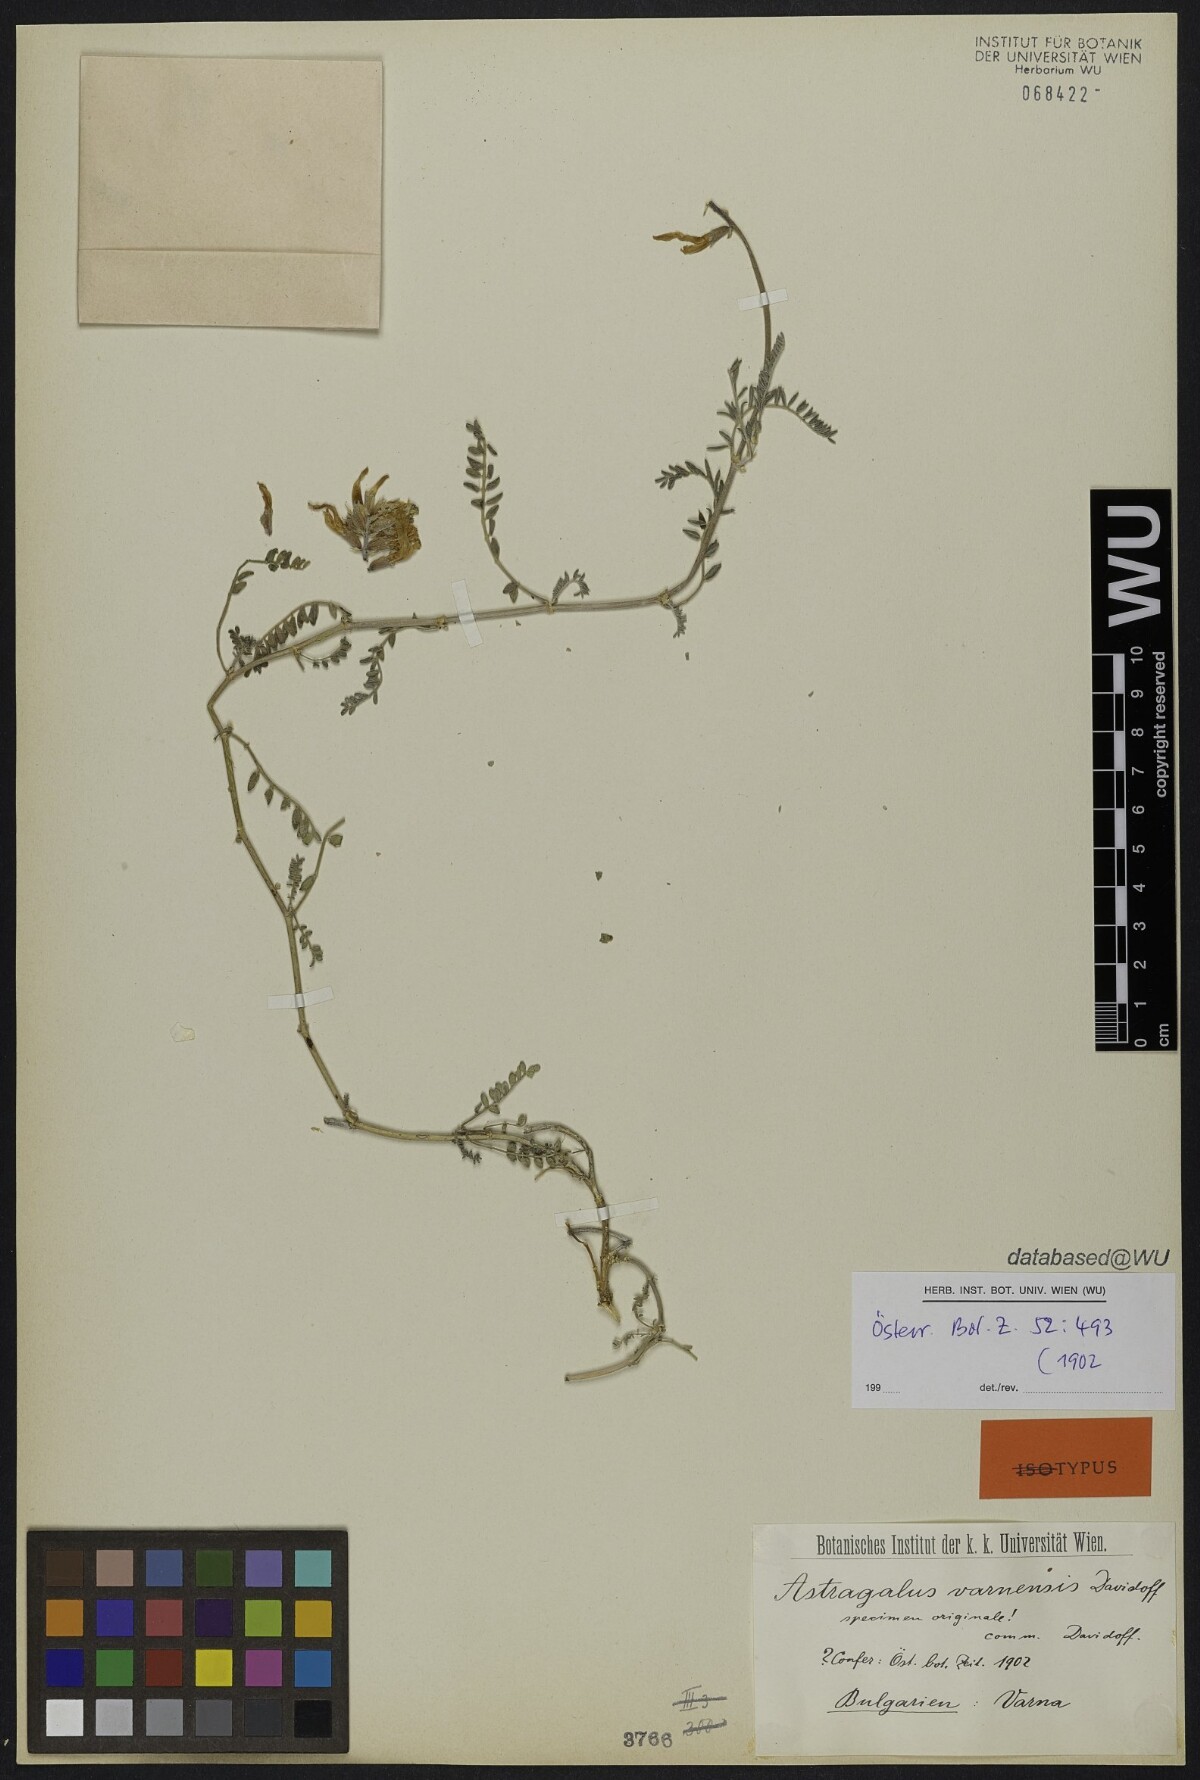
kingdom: Plantae
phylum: Tracheophyta
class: Magnoliopsida
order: Fabales
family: Fabaceae
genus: Astragalus
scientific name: Astragalus onobrychis
